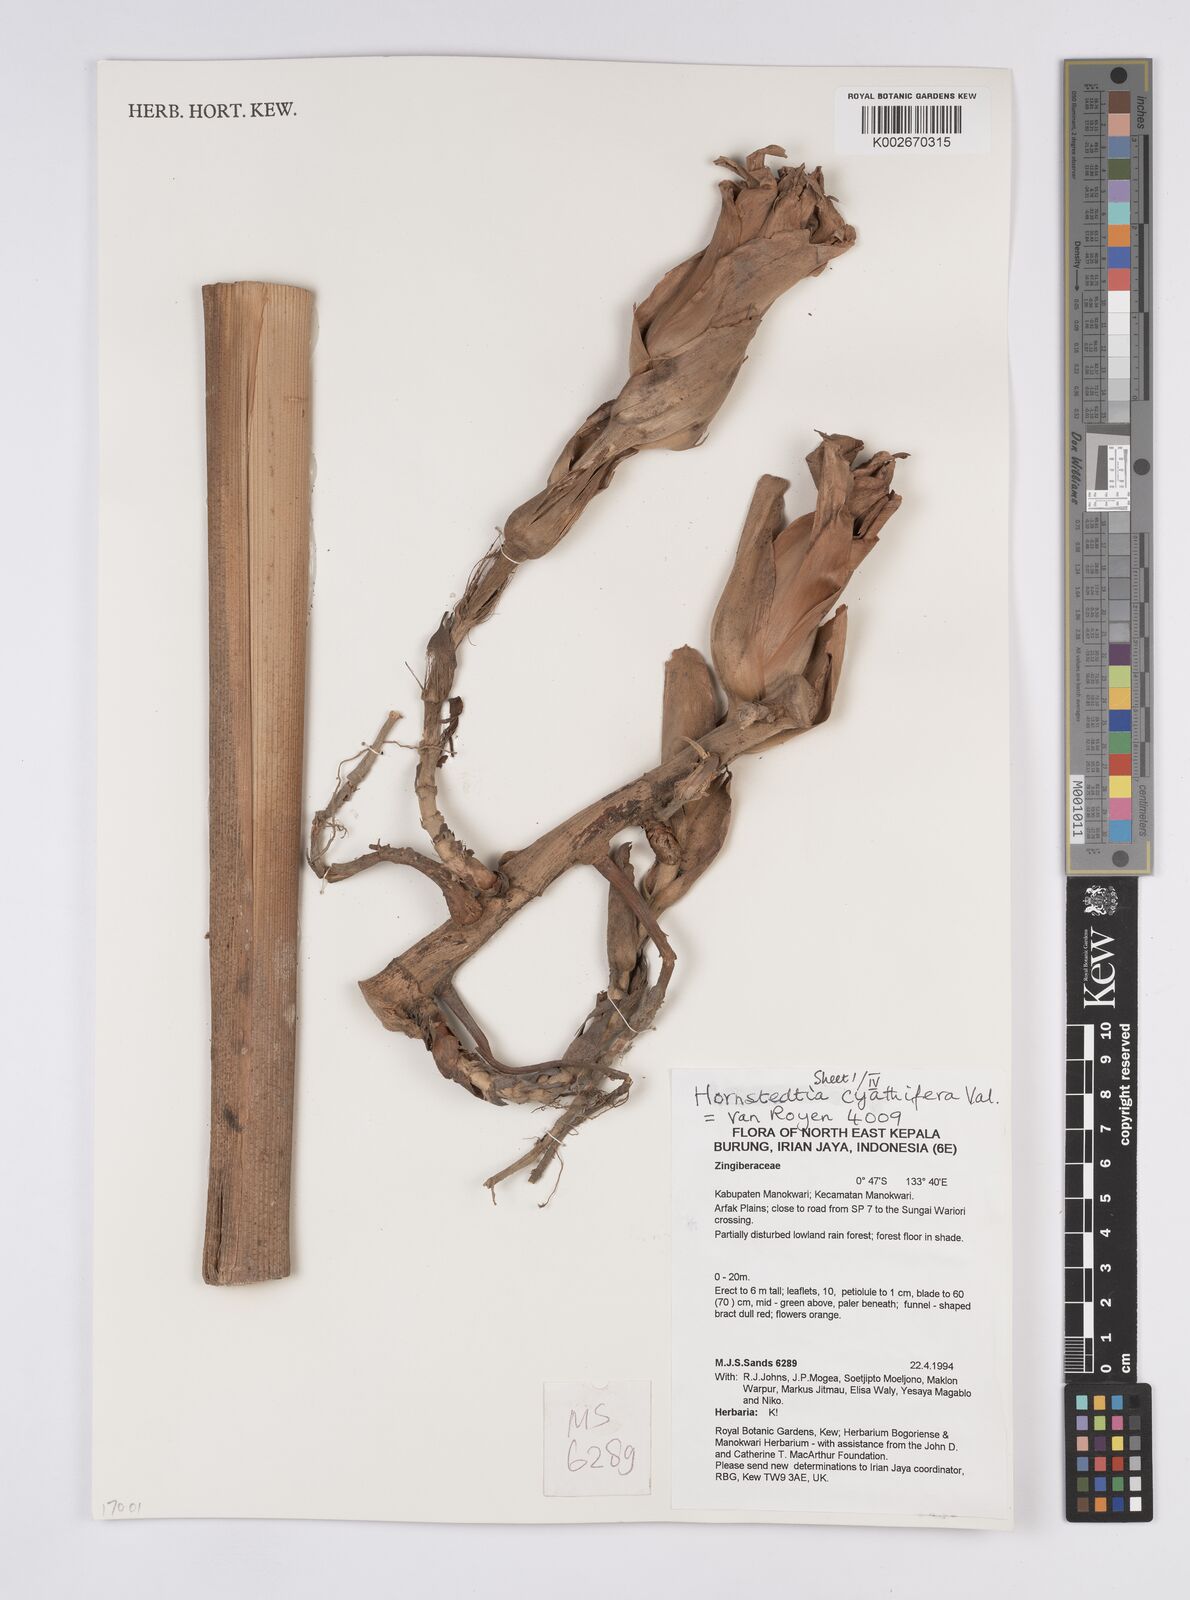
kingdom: Plantae
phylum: Tracheophyta
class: Liliopsida
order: Zingiberales
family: Zingiberaceae
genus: Hornstedtia
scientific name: Hornstedtia cyathifera
